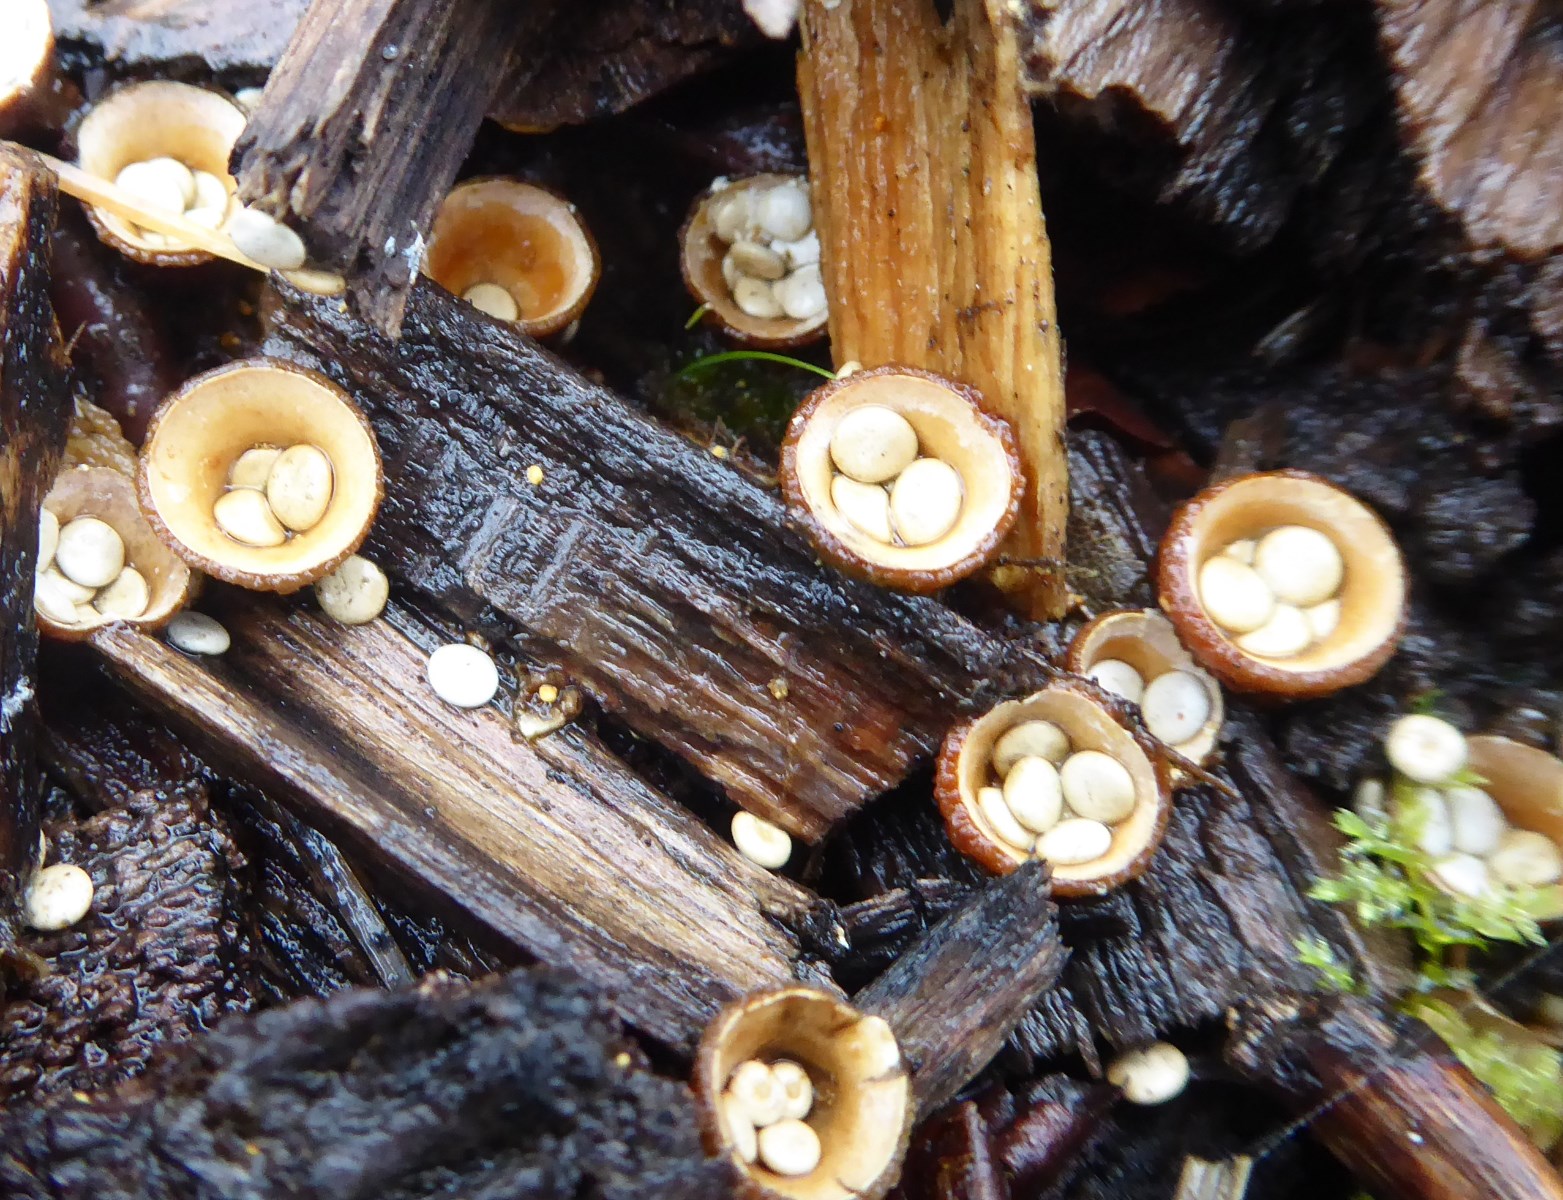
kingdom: Fungi
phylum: Basidiomycota
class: Agaricomycetes
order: Agaricales
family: Nidulariaceae
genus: Crucibulum
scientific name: Crucibulum crucibuliforme
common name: krukkesvamp
